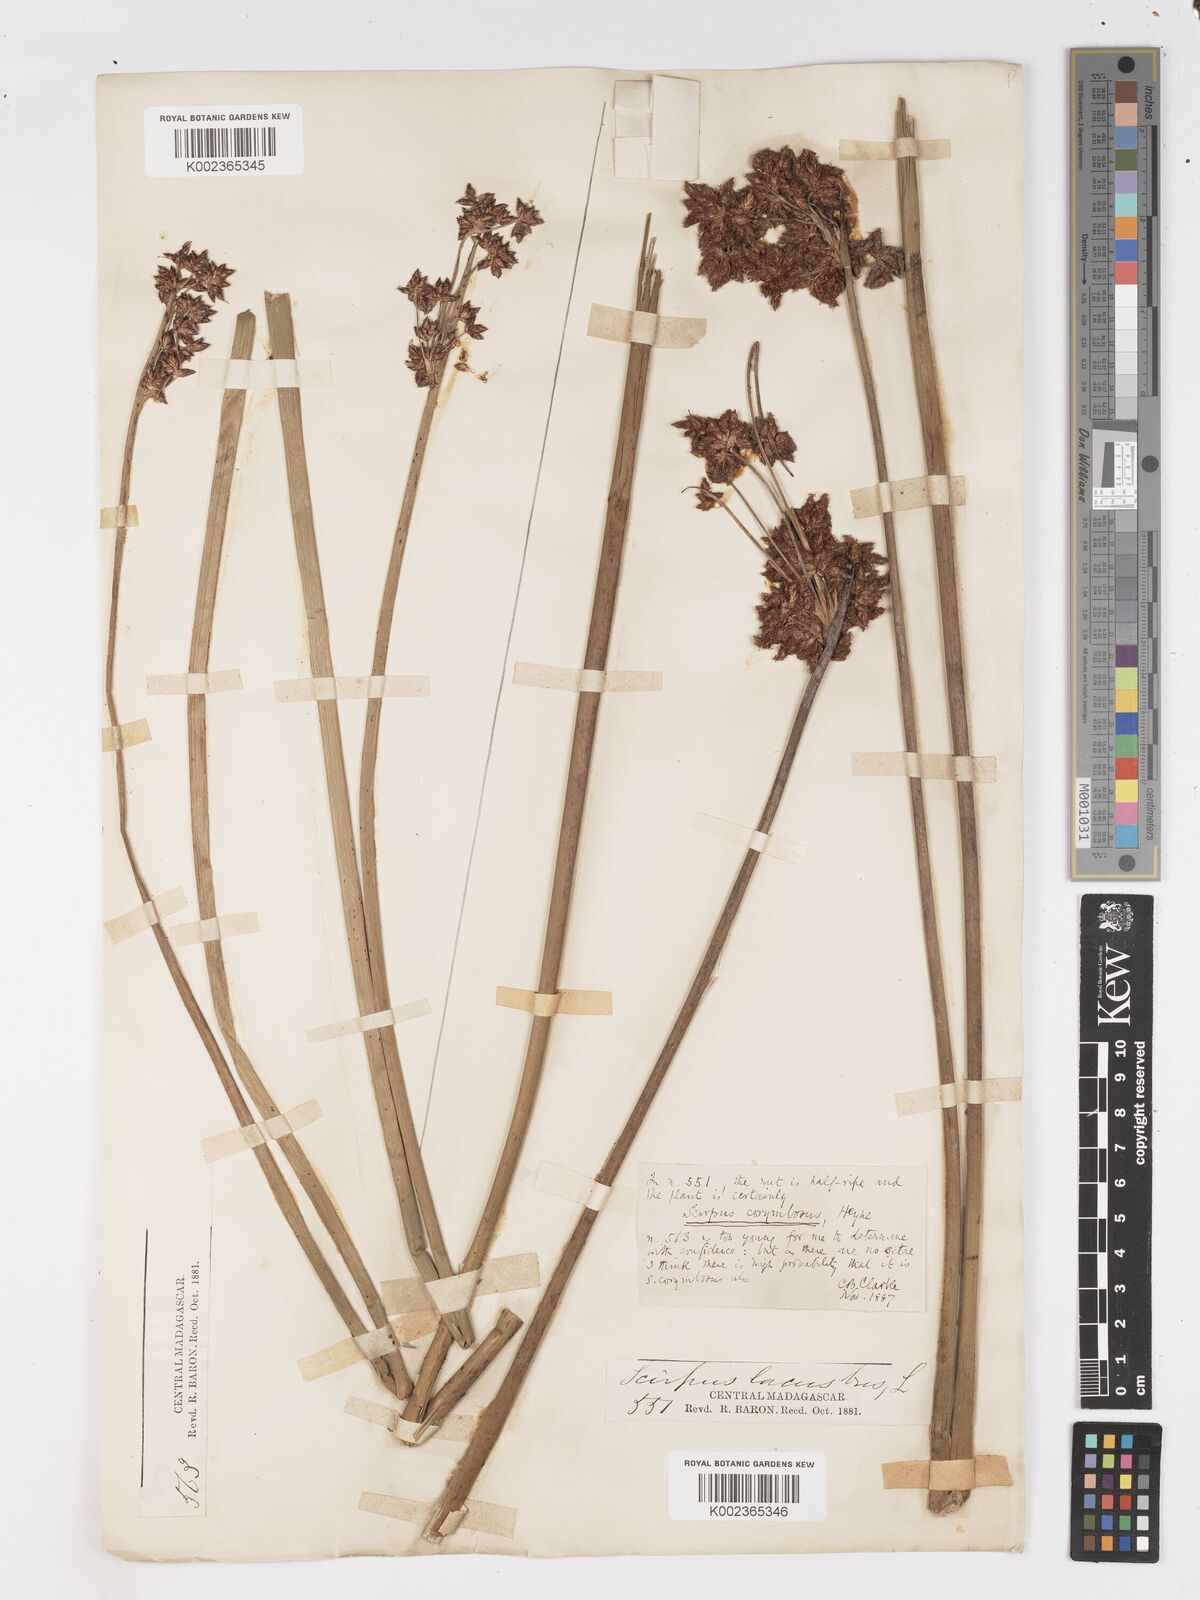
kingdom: Plantae
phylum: Tracheophyta
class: Liliopsida
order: Poales
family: Cyperaceae
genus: Schoenoplectiella
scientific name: Schoenoplectiella brachyceras
